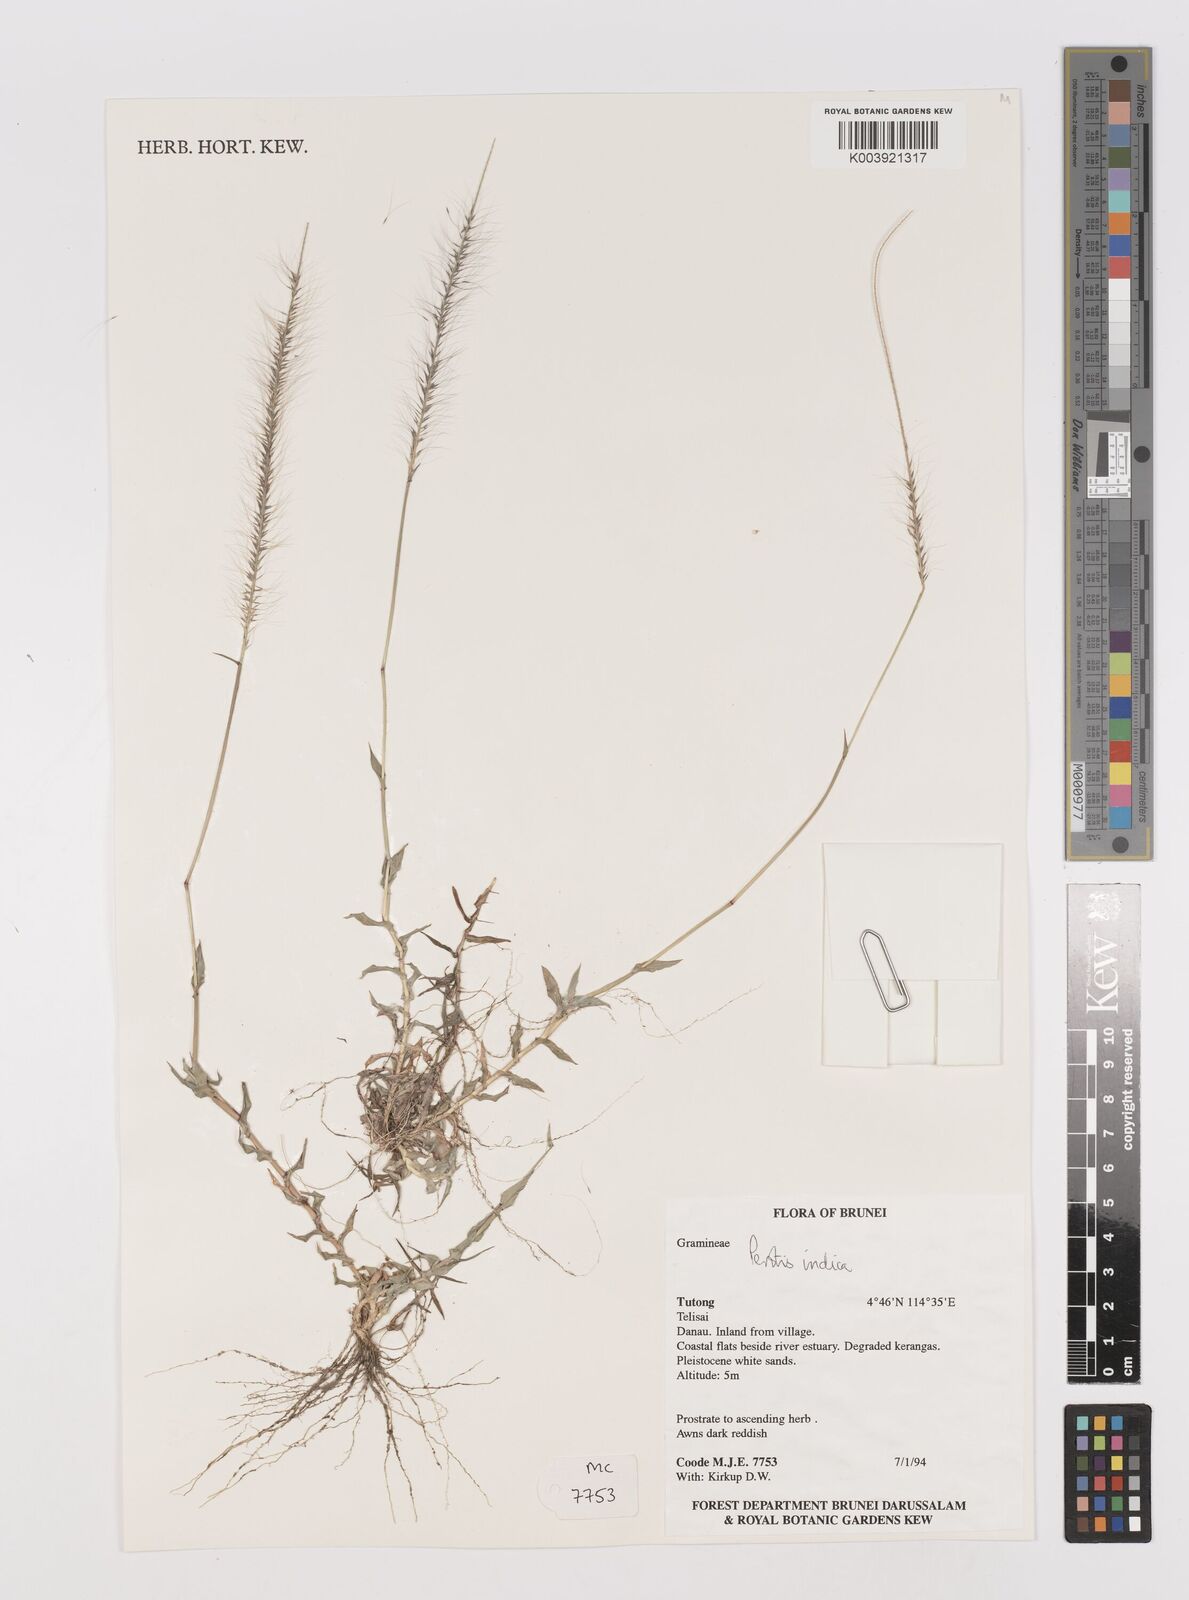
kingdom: Plantae
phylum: Tracheophyta
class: Liliopsida
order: Poales
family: Poaceae
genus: Perotis
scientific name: Perotis indica
